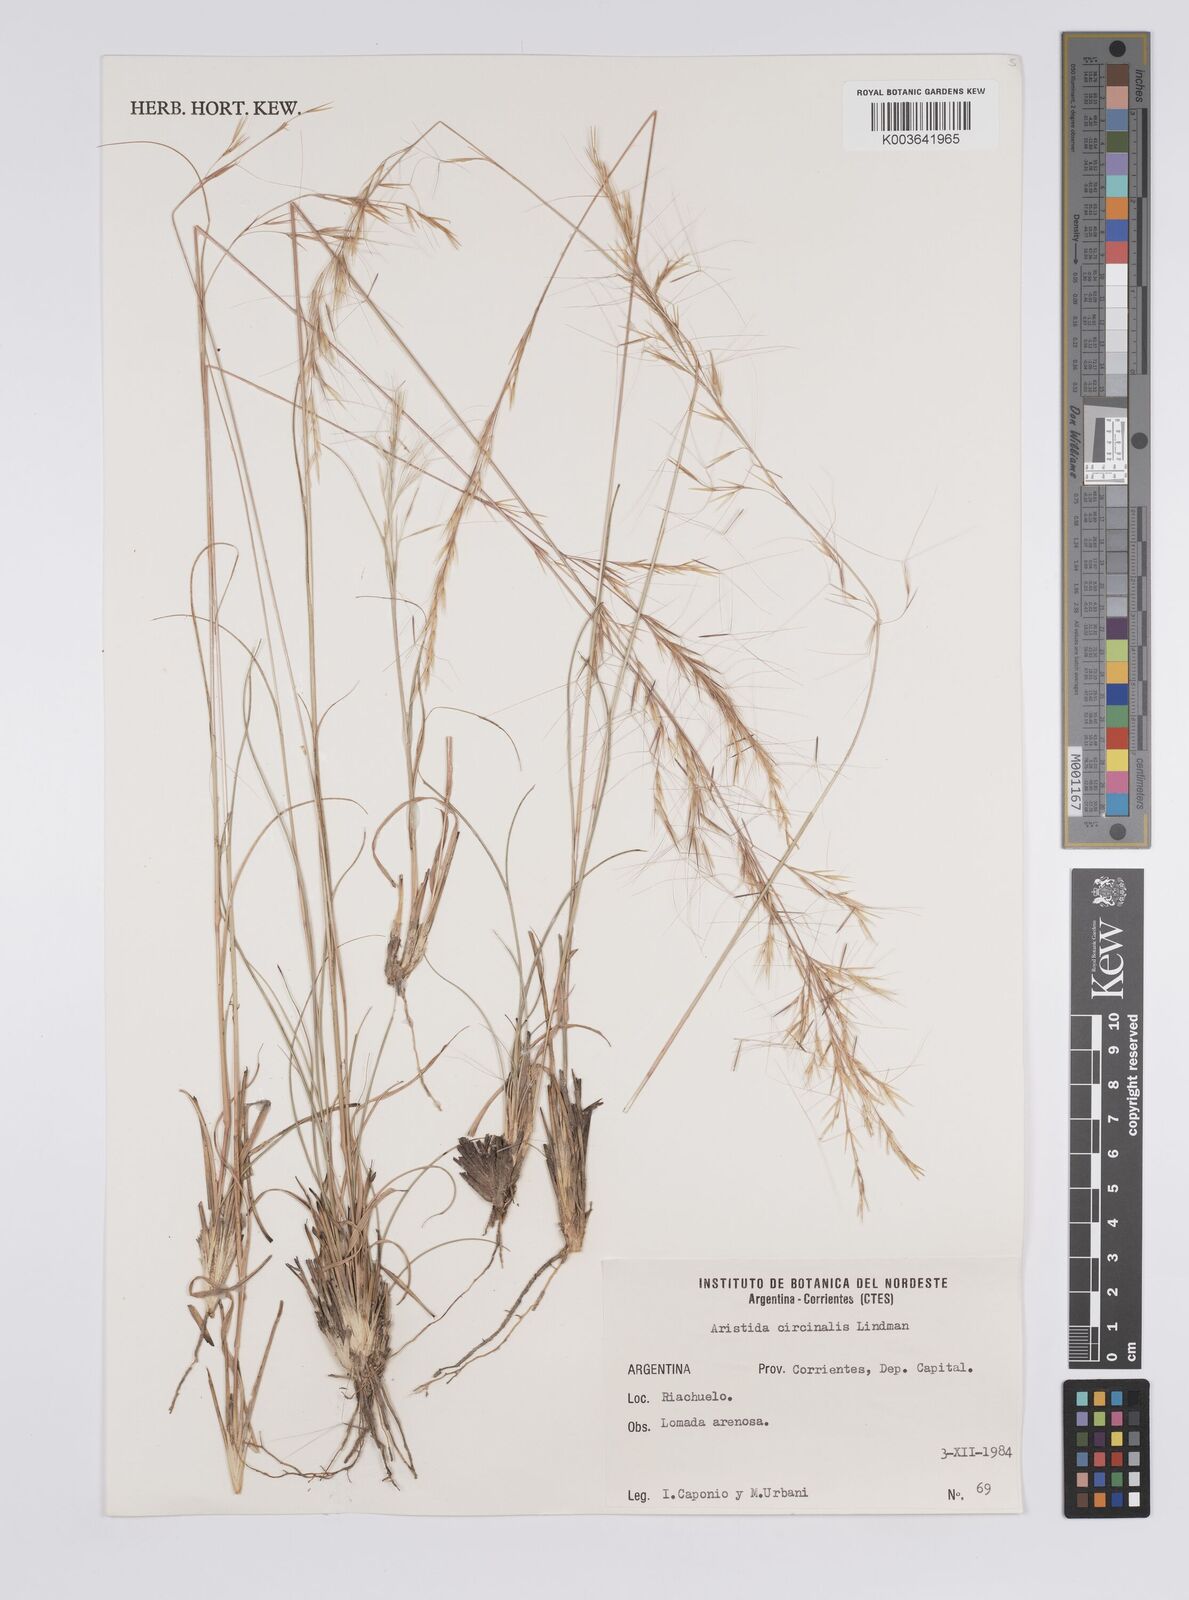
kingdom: Plantae
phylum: Tracheophyta
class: Liliopsida
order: Poales
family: Poaceae
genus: Aristida
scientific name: Aristida circinalis
